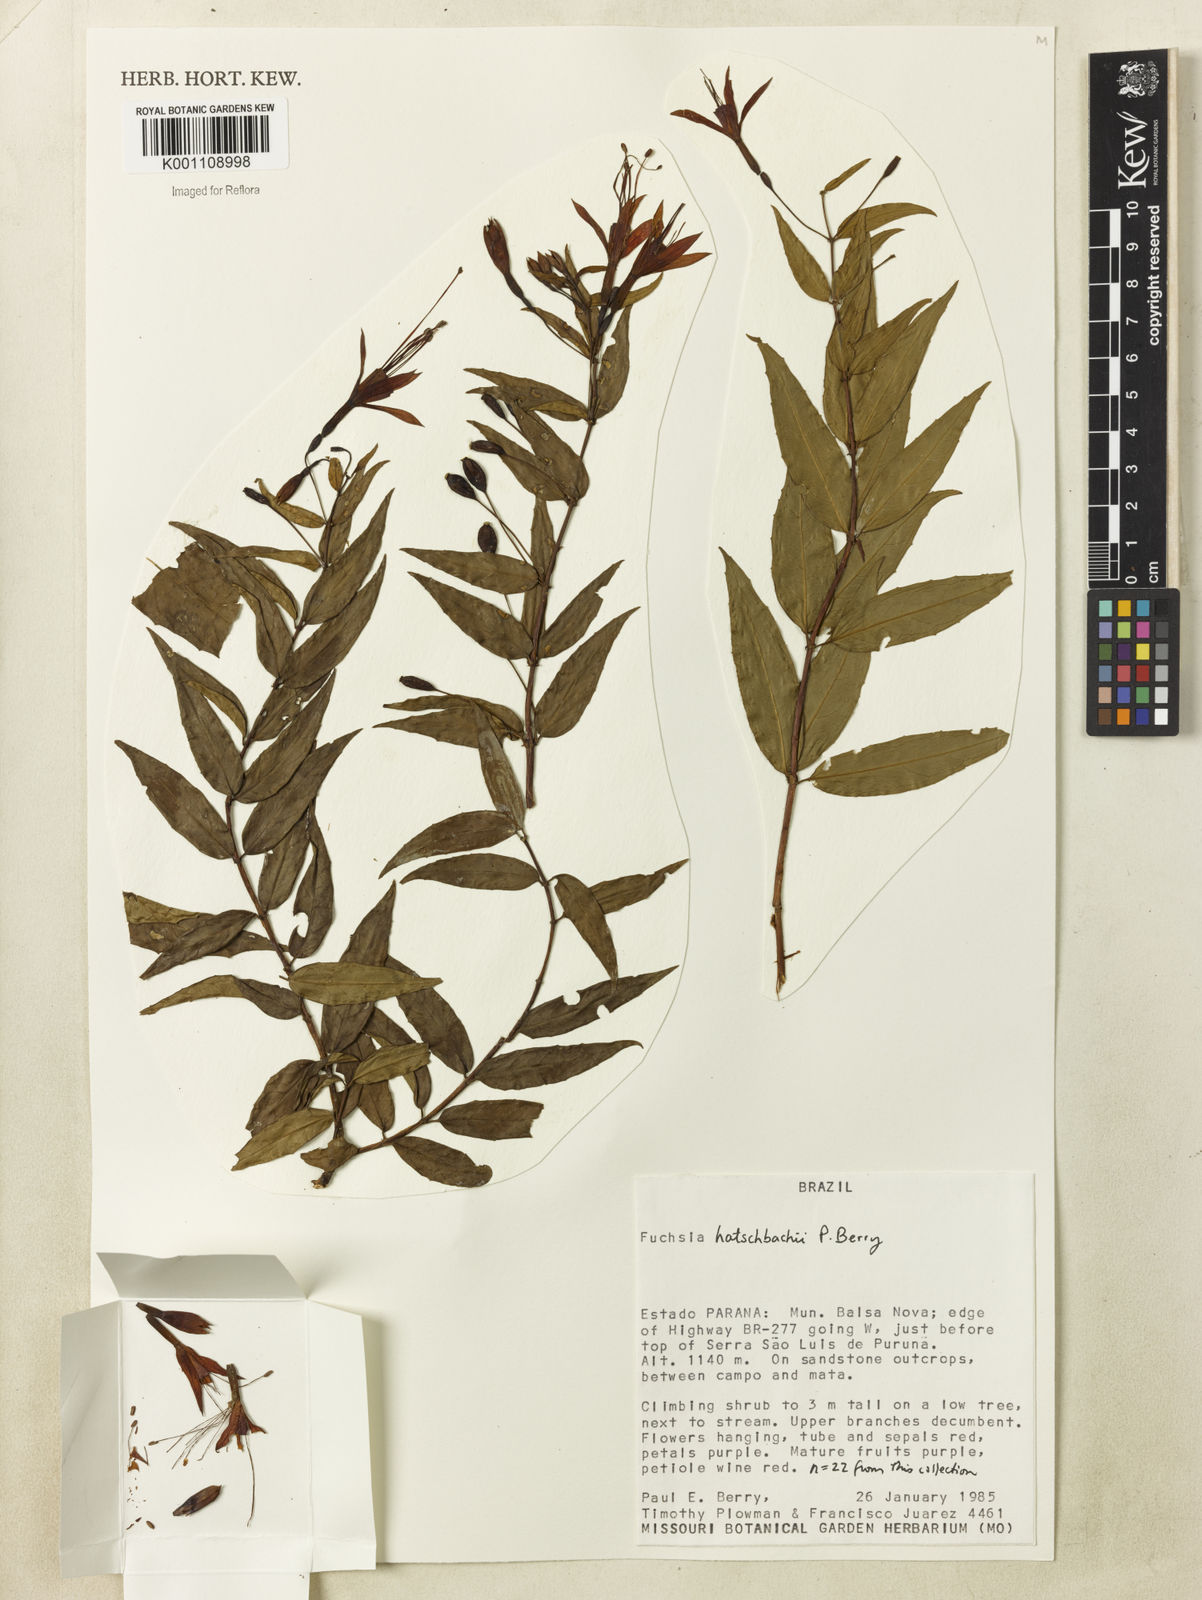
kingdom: Plantae
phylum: Tracheophyta
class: Magnoliopsida
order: Myrtales
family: Onagraceae
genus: Fuchsia
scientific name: Fuchsia hatschbachii
